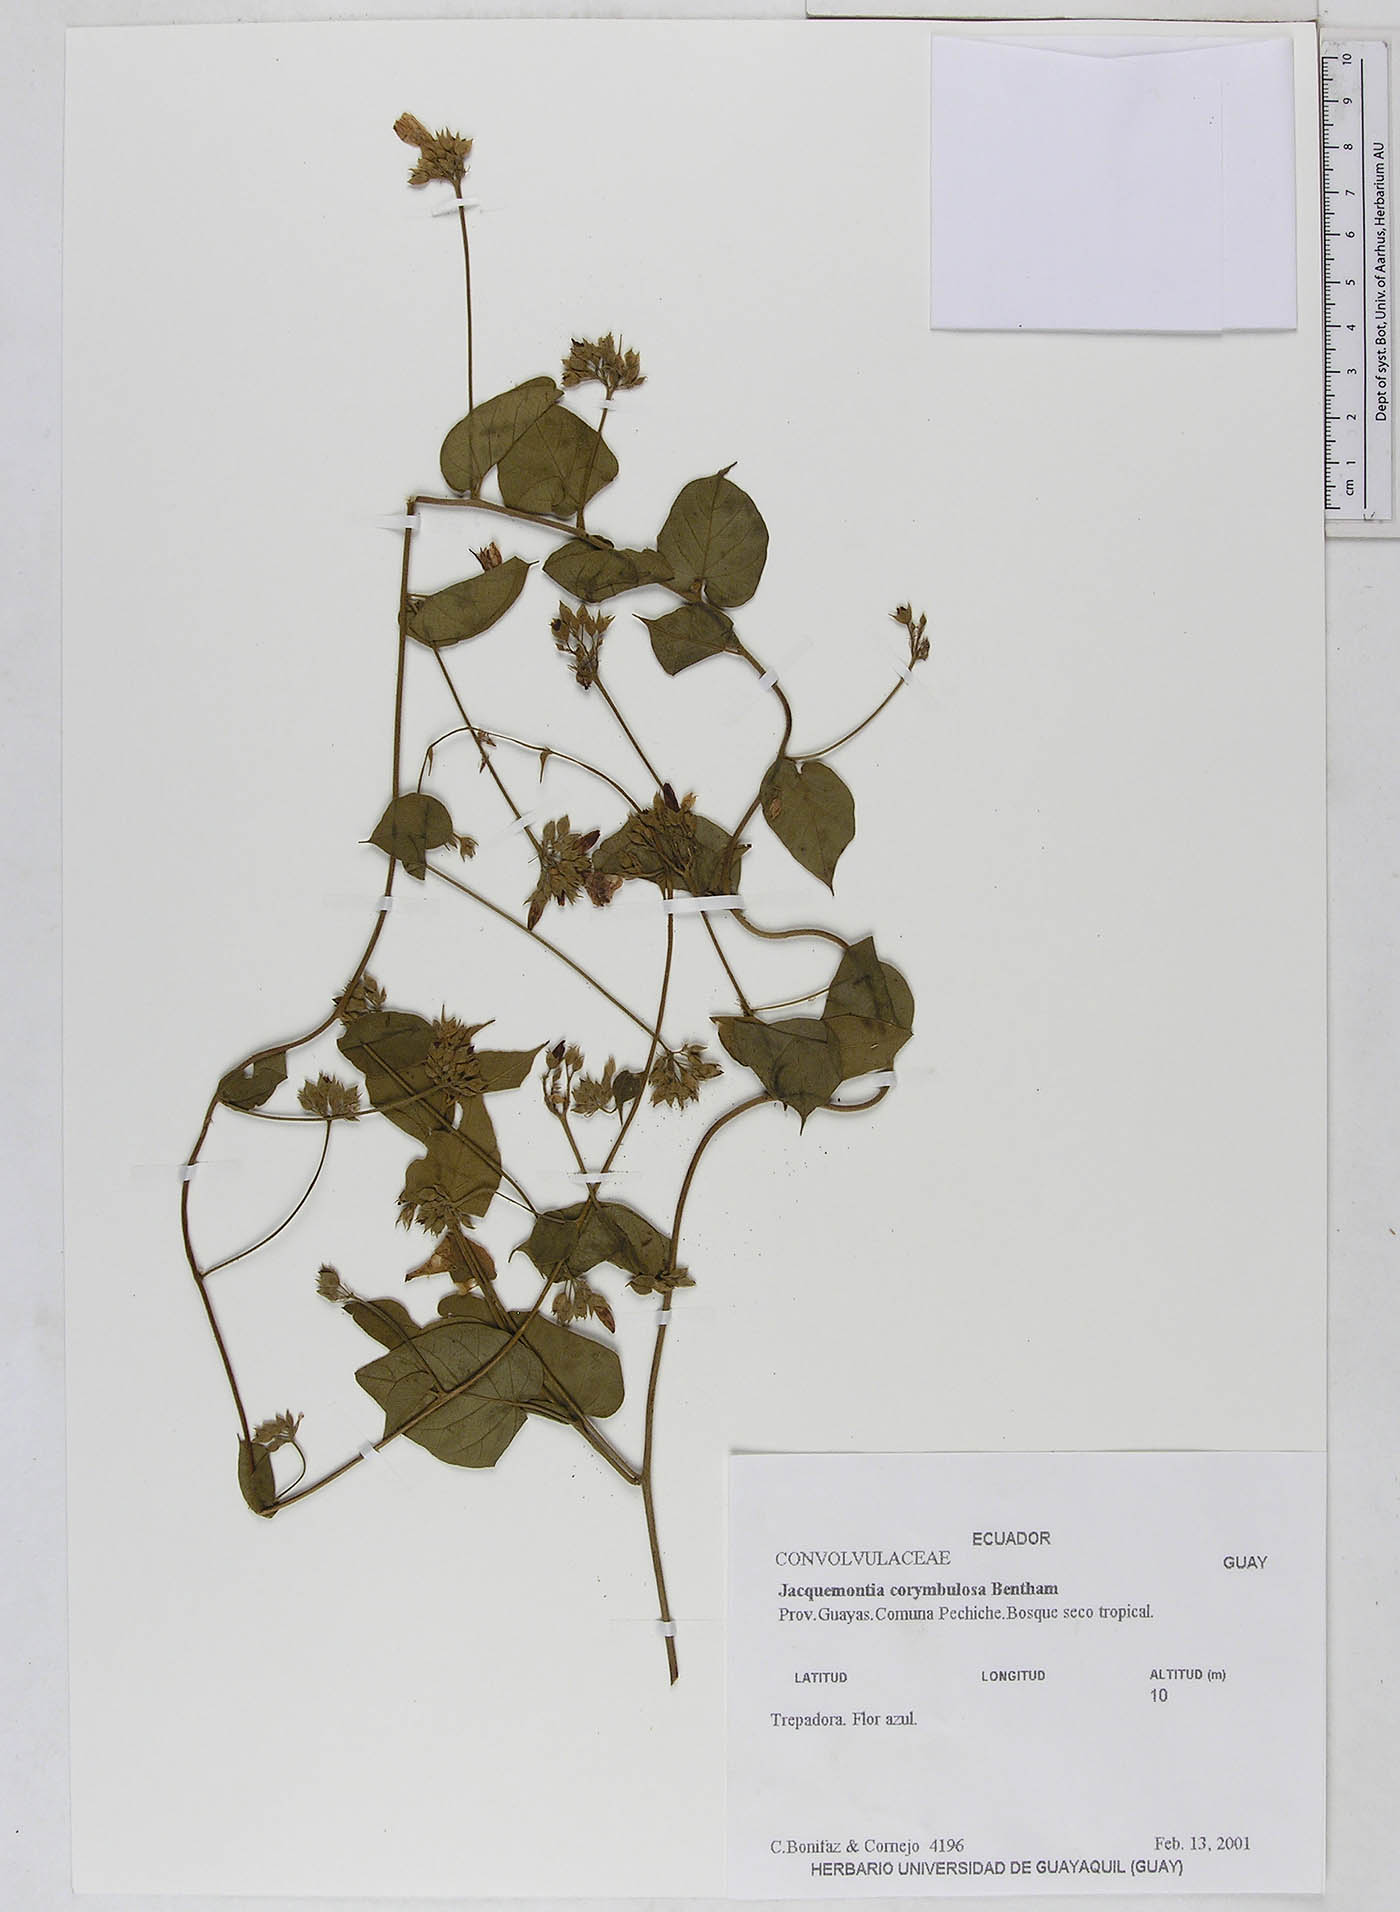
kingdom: Plantae
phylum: Tracheophyta
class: Magnoliopsida
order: Solanales
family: Convolvulaceae
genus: Jacquemontia
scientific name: Jacquemontia corymbulosa
